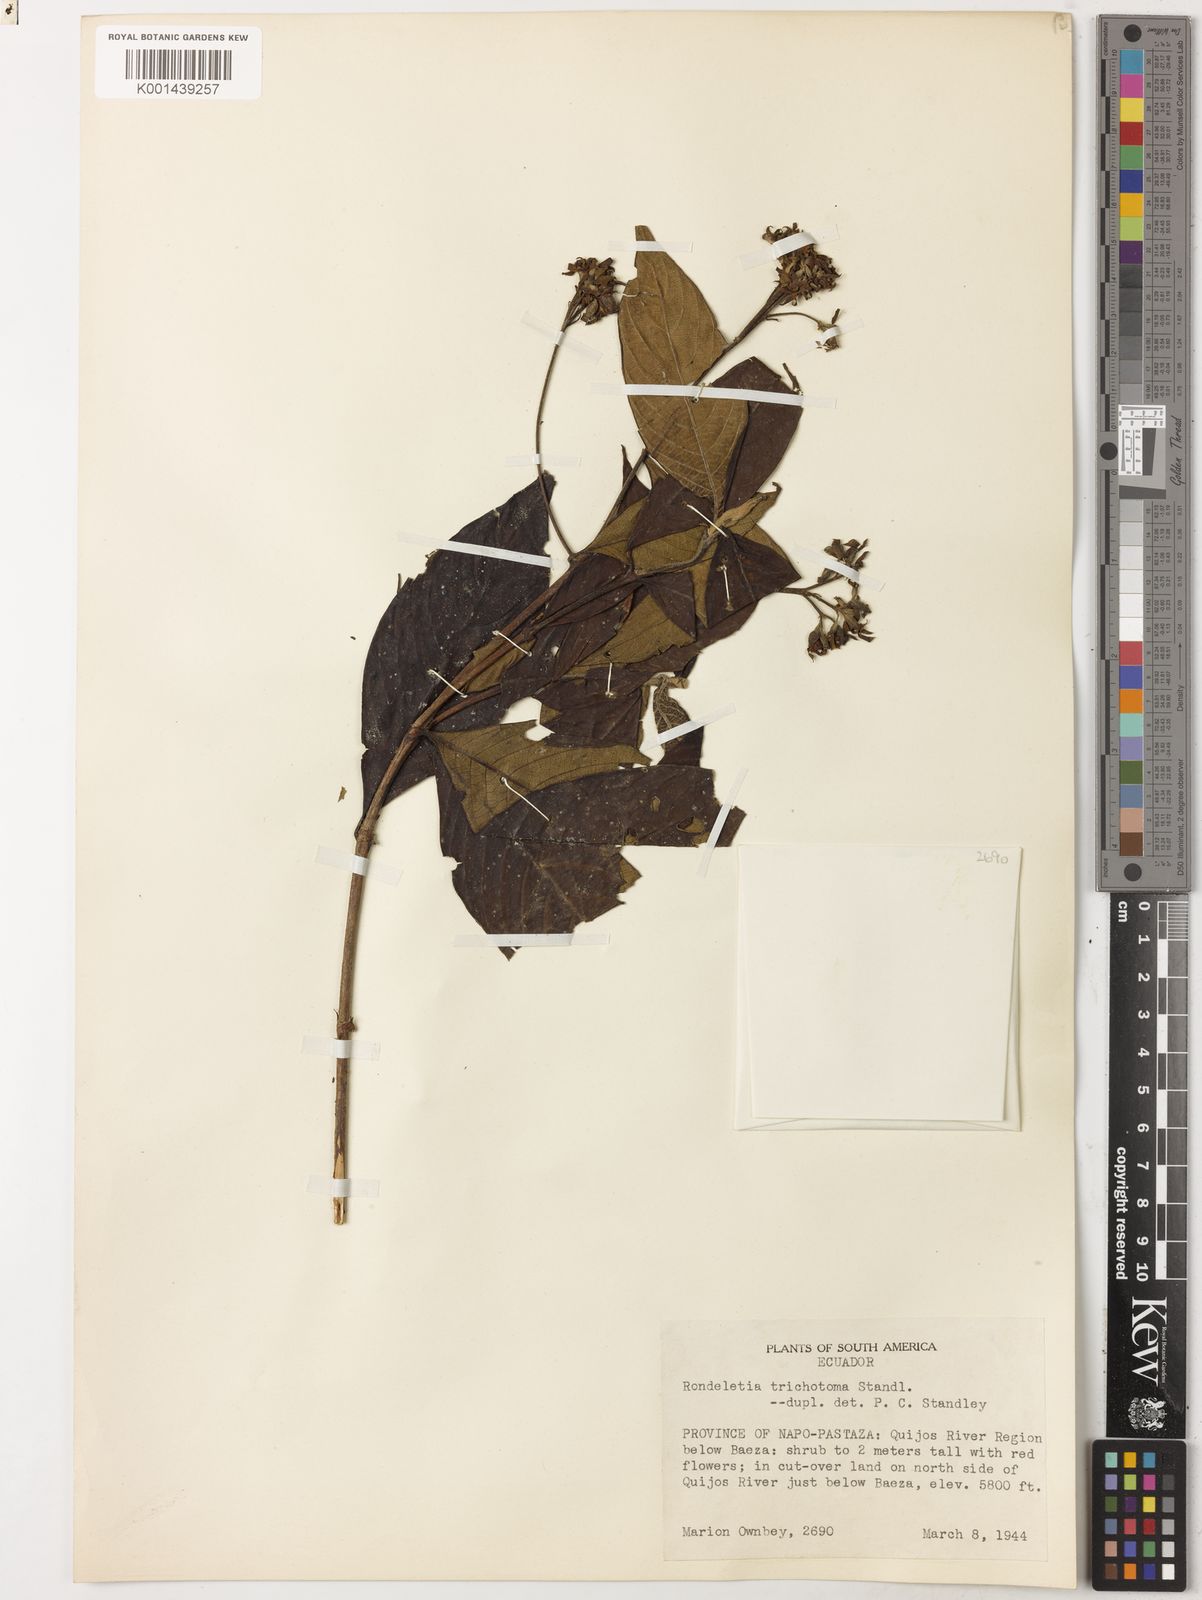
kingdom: Plantae
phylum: Tracheophyta
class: Magnoliopsida
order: Gentianales
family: Rubiaceae
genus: Arachnothryx
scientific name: Arachnothryx reflexa
